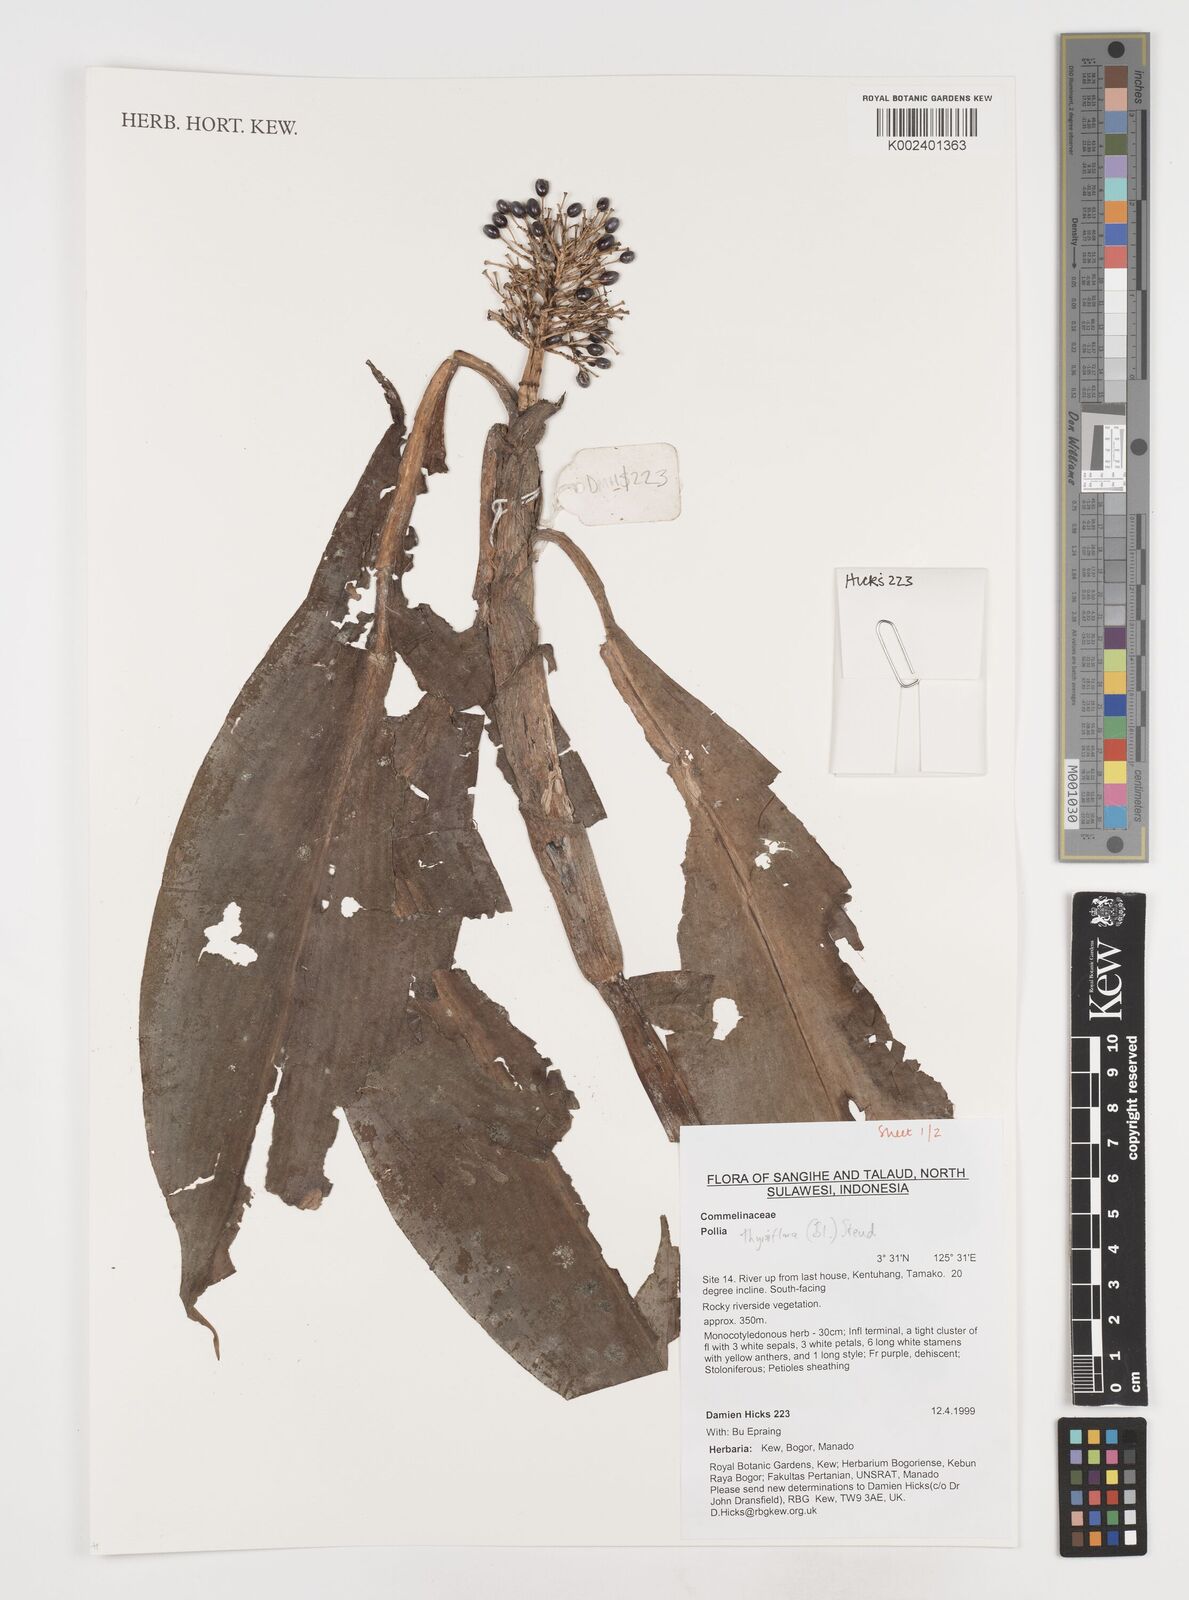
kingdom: Plantae
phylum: Tracheophyta
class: Liliopsida
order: Commelinales
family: Commelinaceae
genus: Pollia
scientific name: Pollia thyrsiflora
